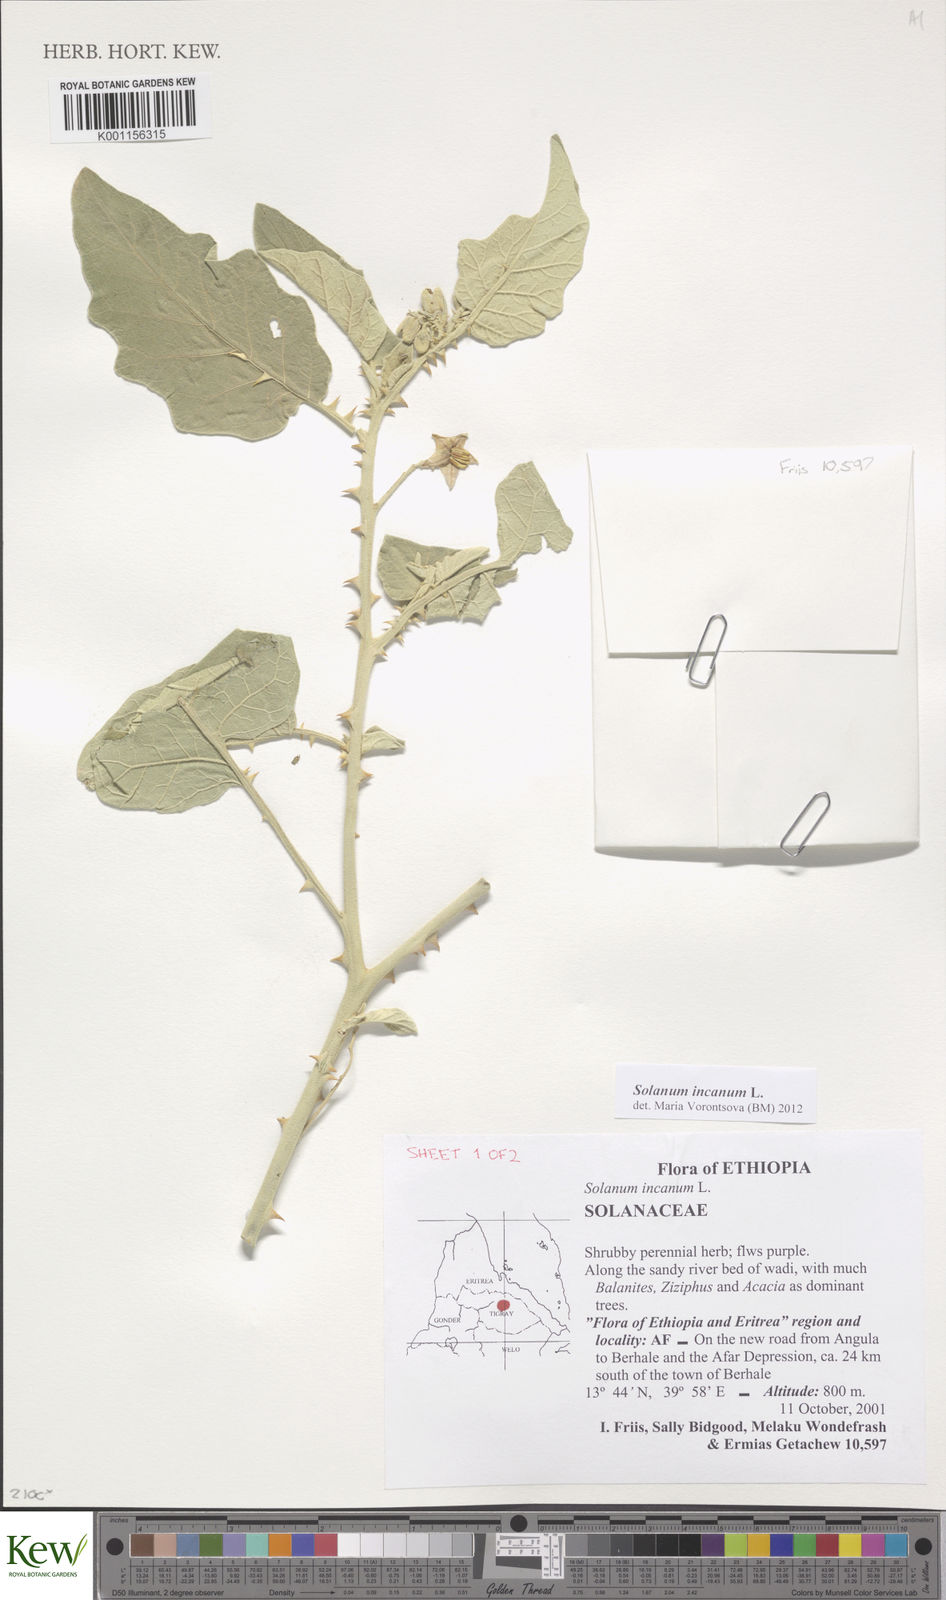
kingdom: Plantae
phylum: Tracheophyta
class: Magnoliopsida
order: Solanales
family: Solanaceae
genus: Solanum
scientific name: Solanum incanum
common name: Bitter apple
